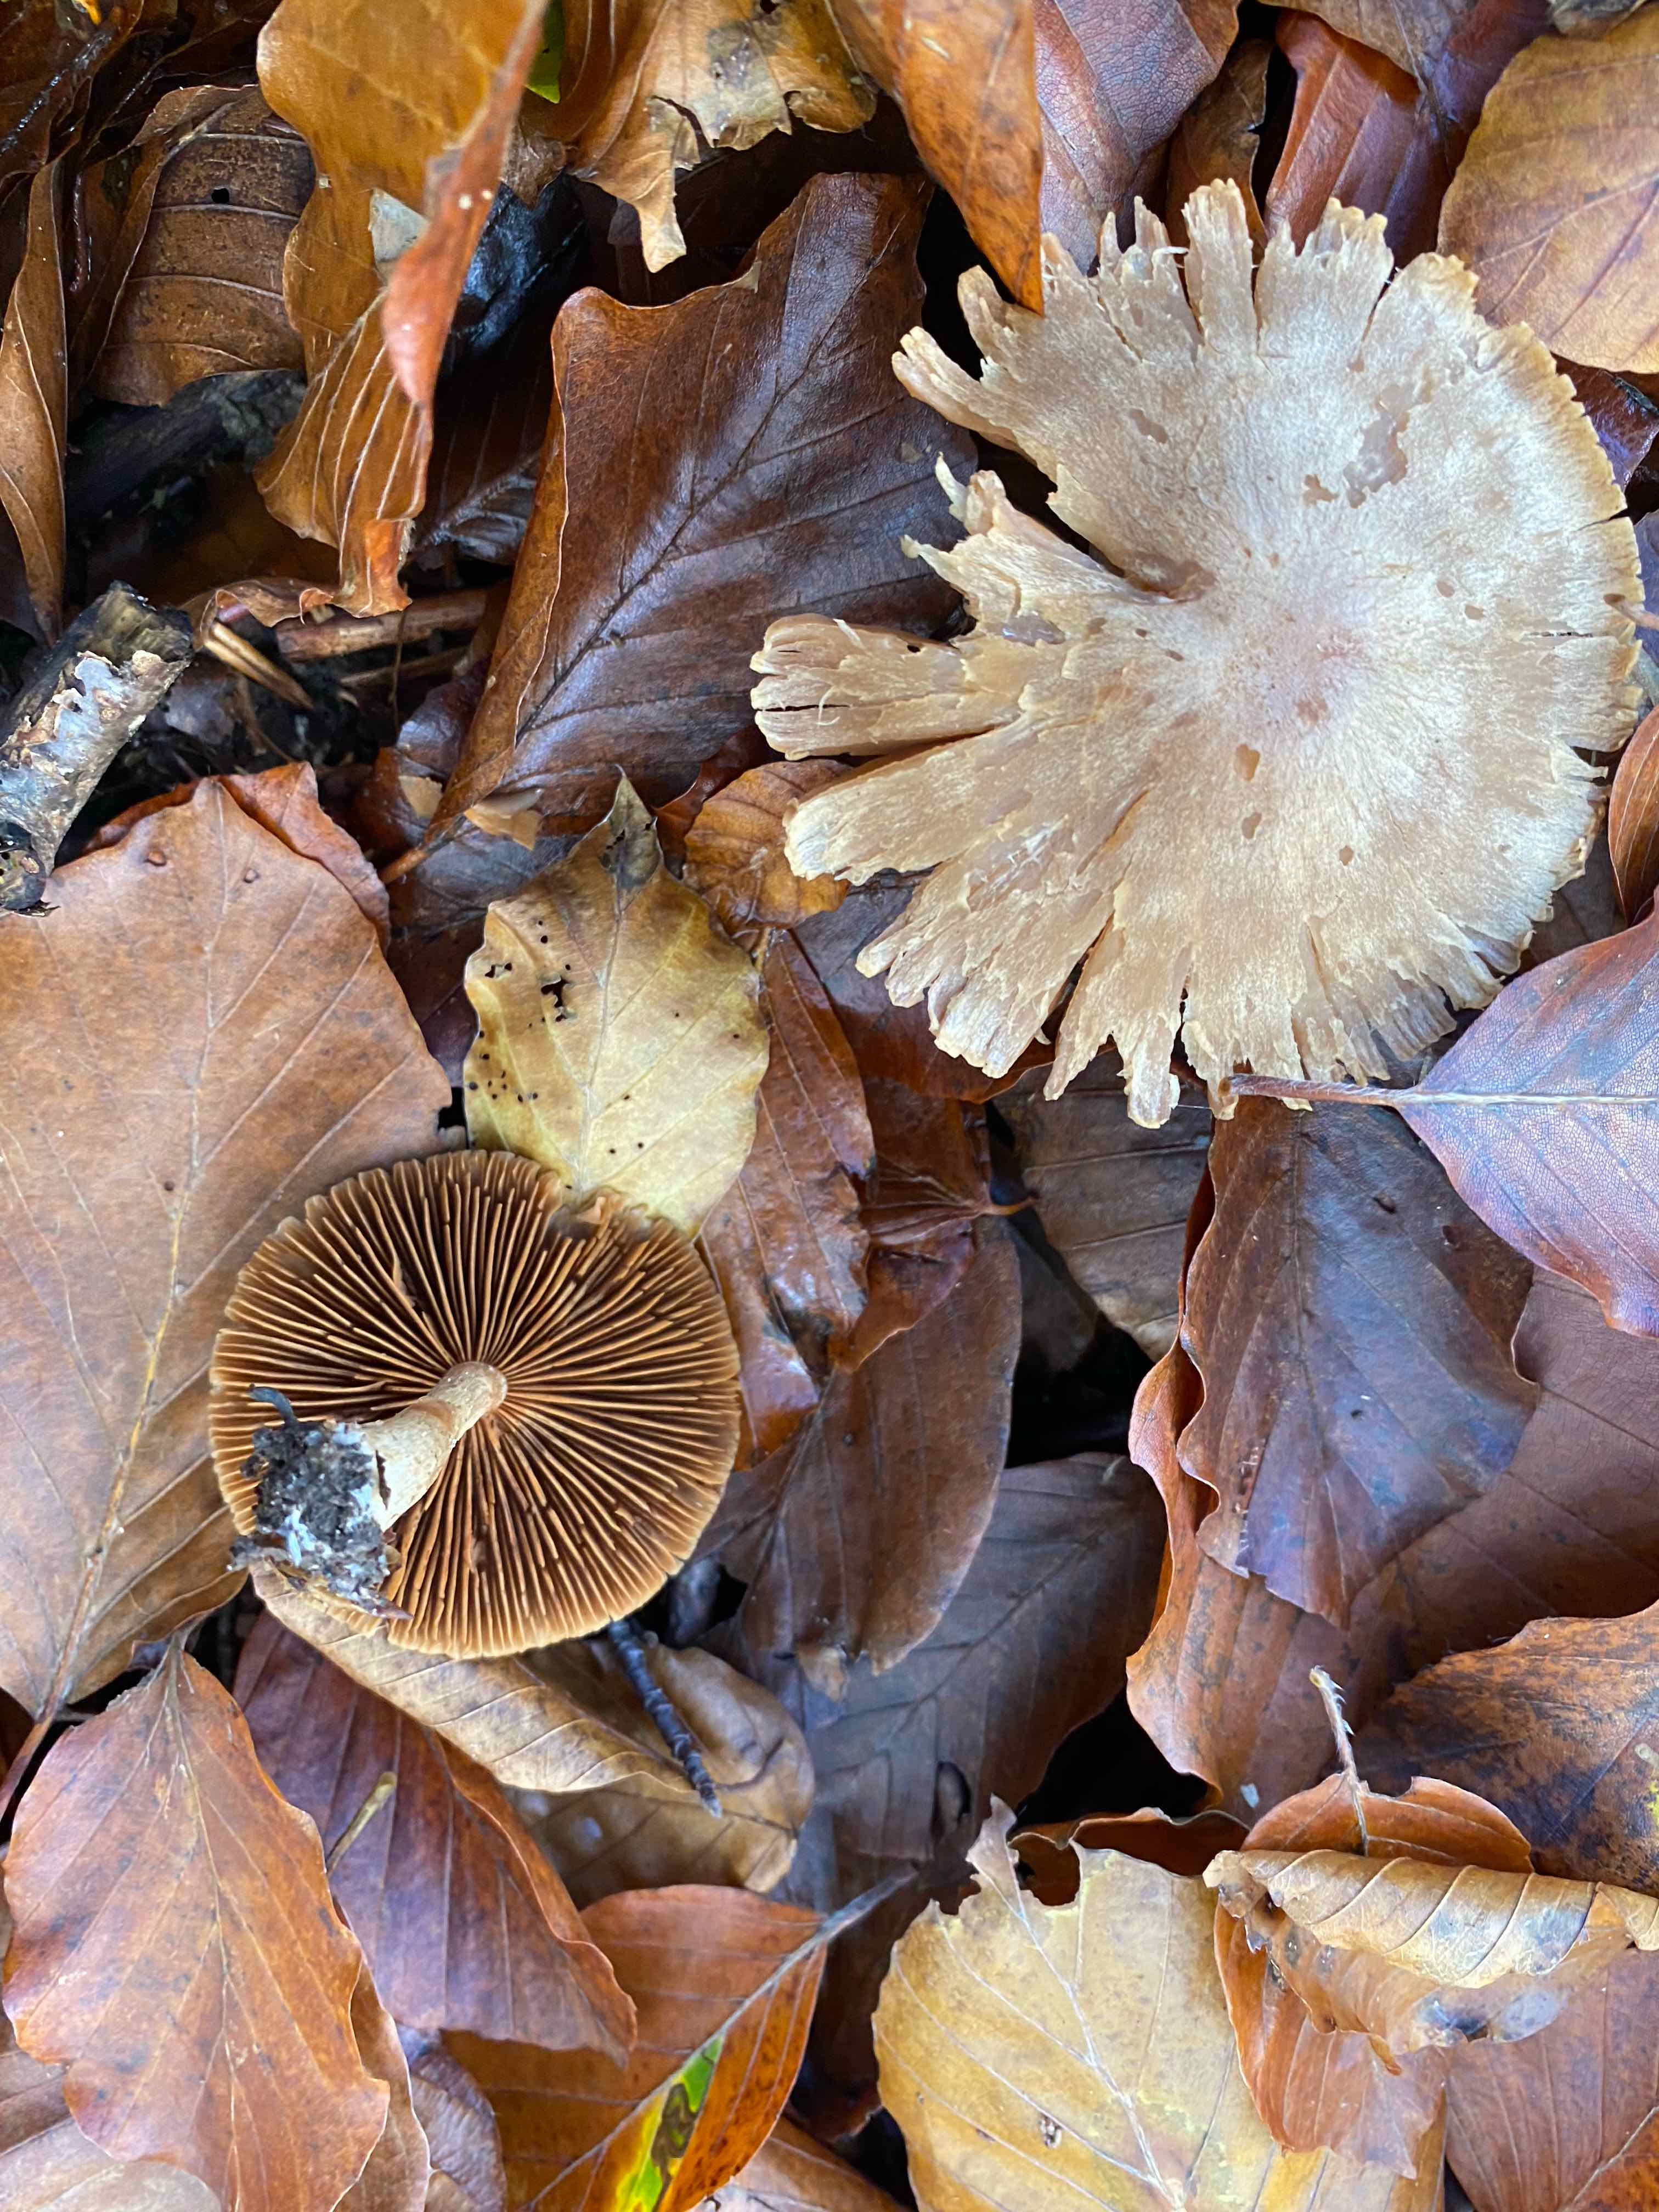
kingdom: Fungi
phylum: Basidiomycota
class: Agaricomycetes
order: Agaricales
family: Cortinariaceae
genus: Cortinarius
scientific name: Cortinarius
